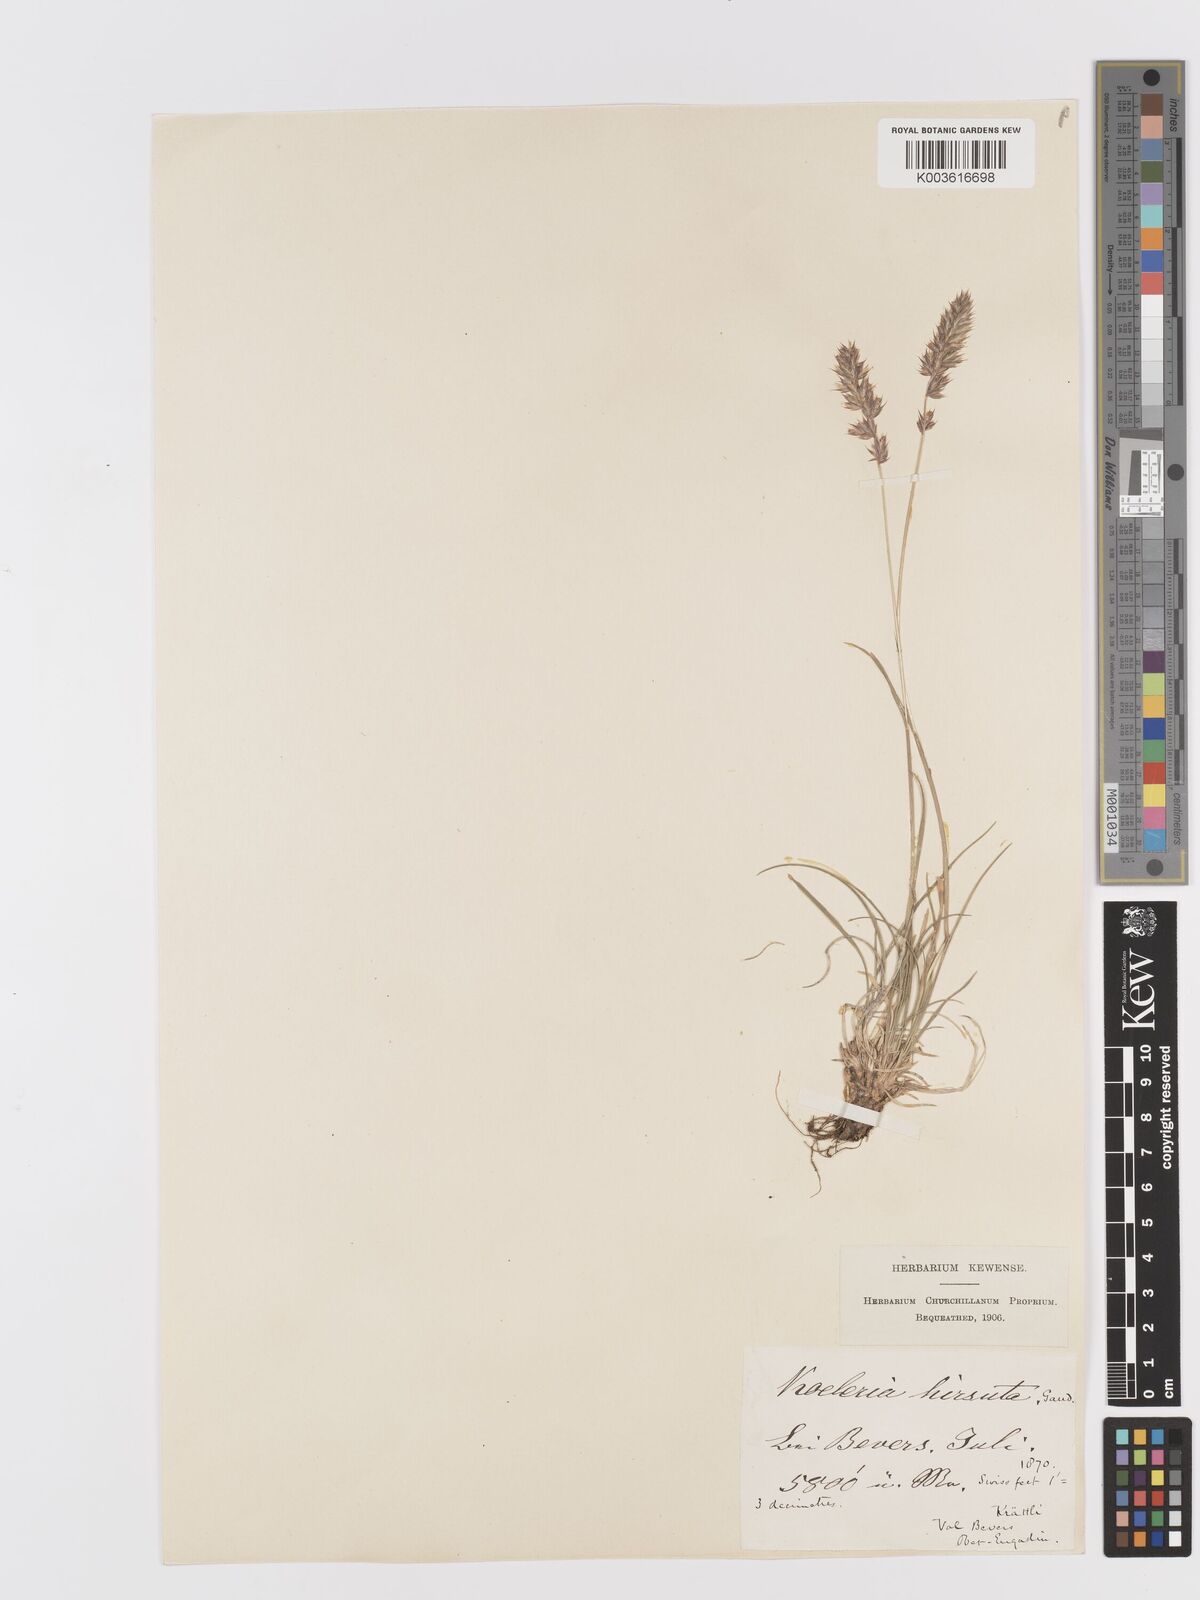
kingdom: Plantae
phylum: Tracheophyta
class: Liliopsida
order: Poales
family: Poaceae
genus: Koeleria
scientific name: Koeleria hirsuta
